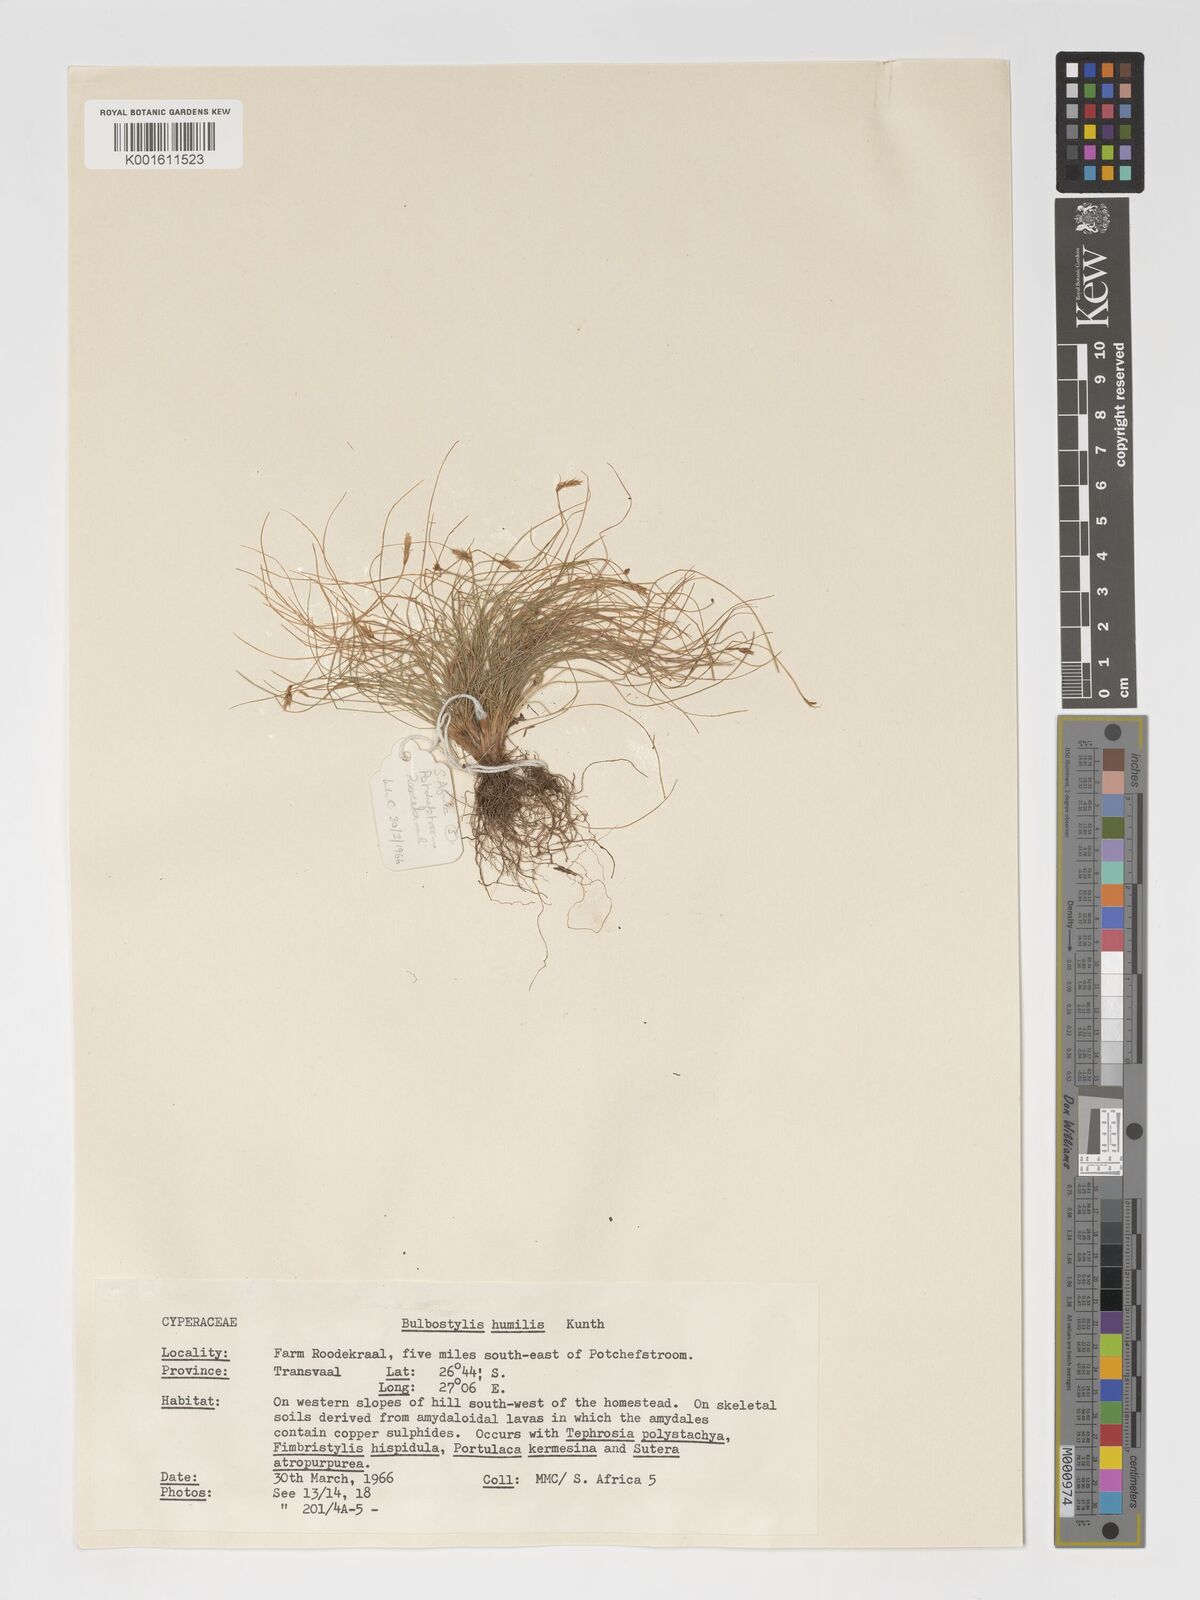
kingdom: Plantae
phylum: Tracheophyta
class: Liliopsida
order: Poales
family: Cyperaceae
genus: Bulbostylis
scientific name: Bulbostylis humilis
